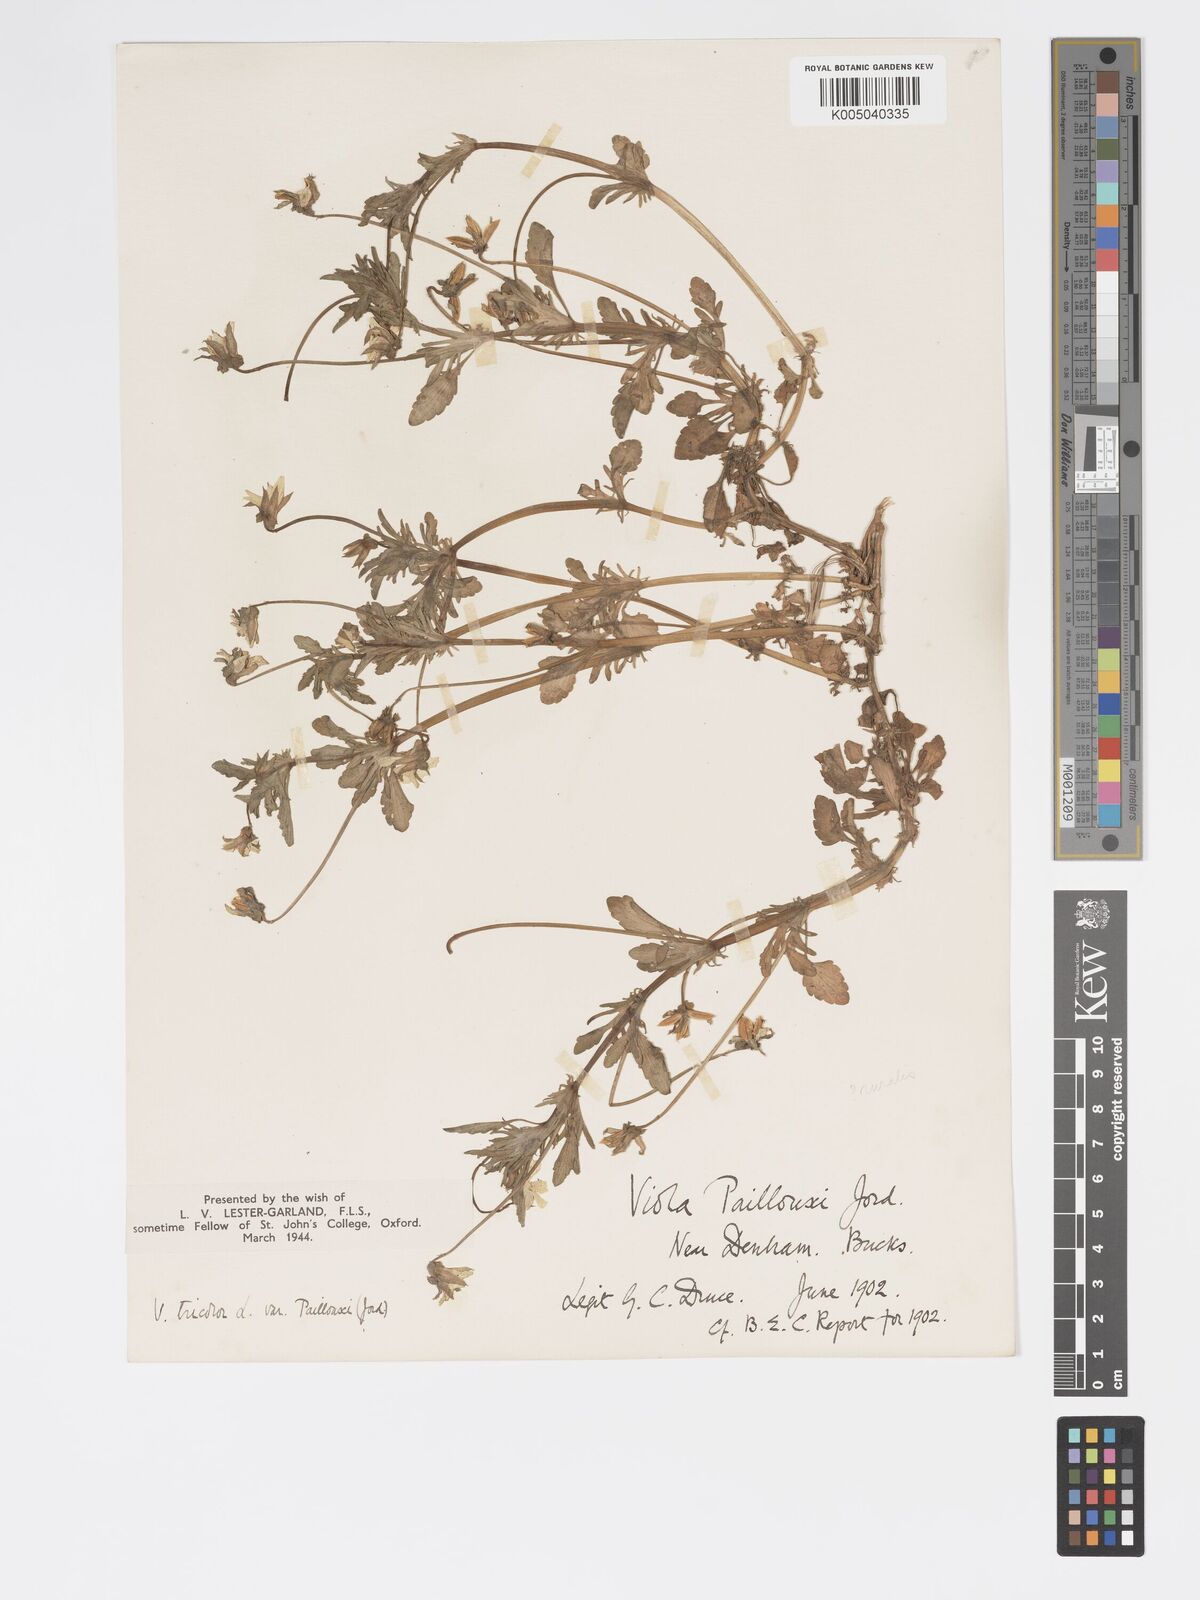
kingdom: Plantae
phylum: Tracheophyta
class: Magnoliopsida
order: Malpighiales
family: Violaceae
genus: Viola
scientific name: Viola arvensis
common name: Field pansy
